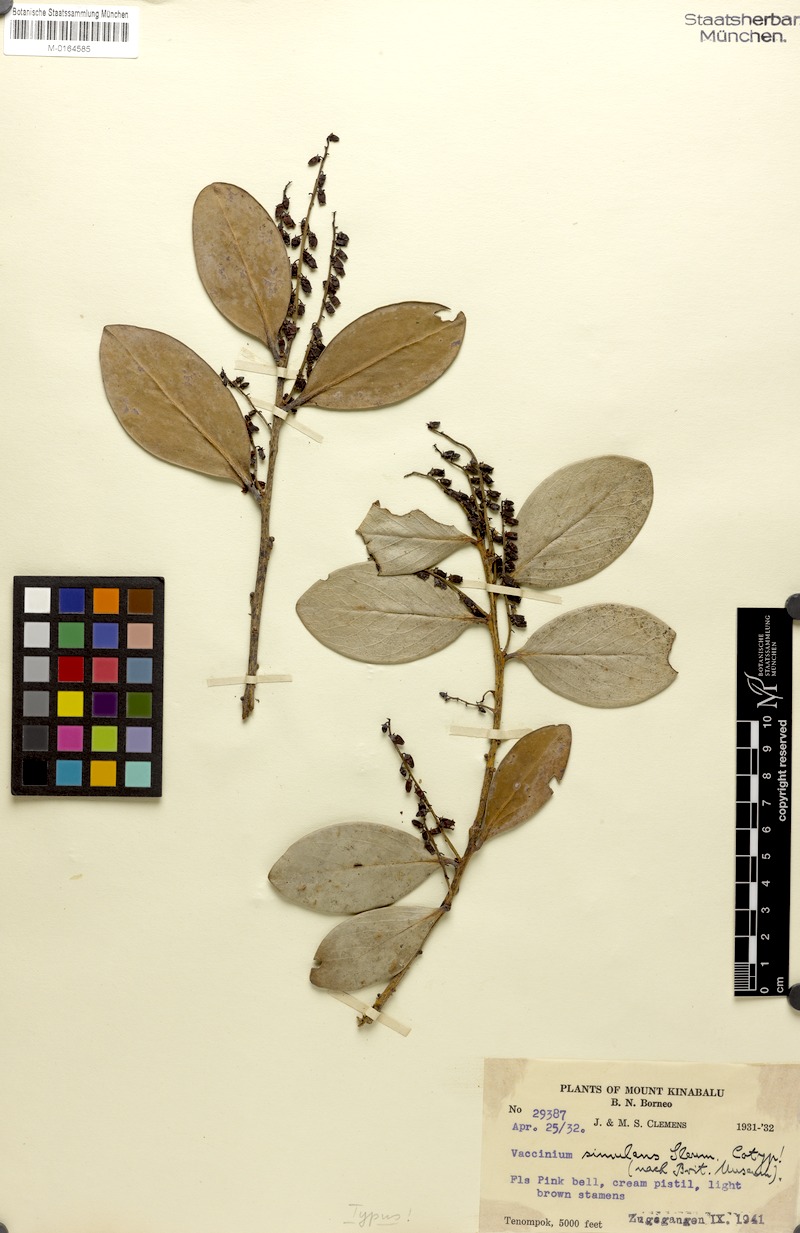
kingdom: Plantae
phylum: Tracheophyta
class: Magnoliopsida
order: Ericales
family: Ericaceae
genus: Vaccinium
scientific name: Vaccinium simulans
